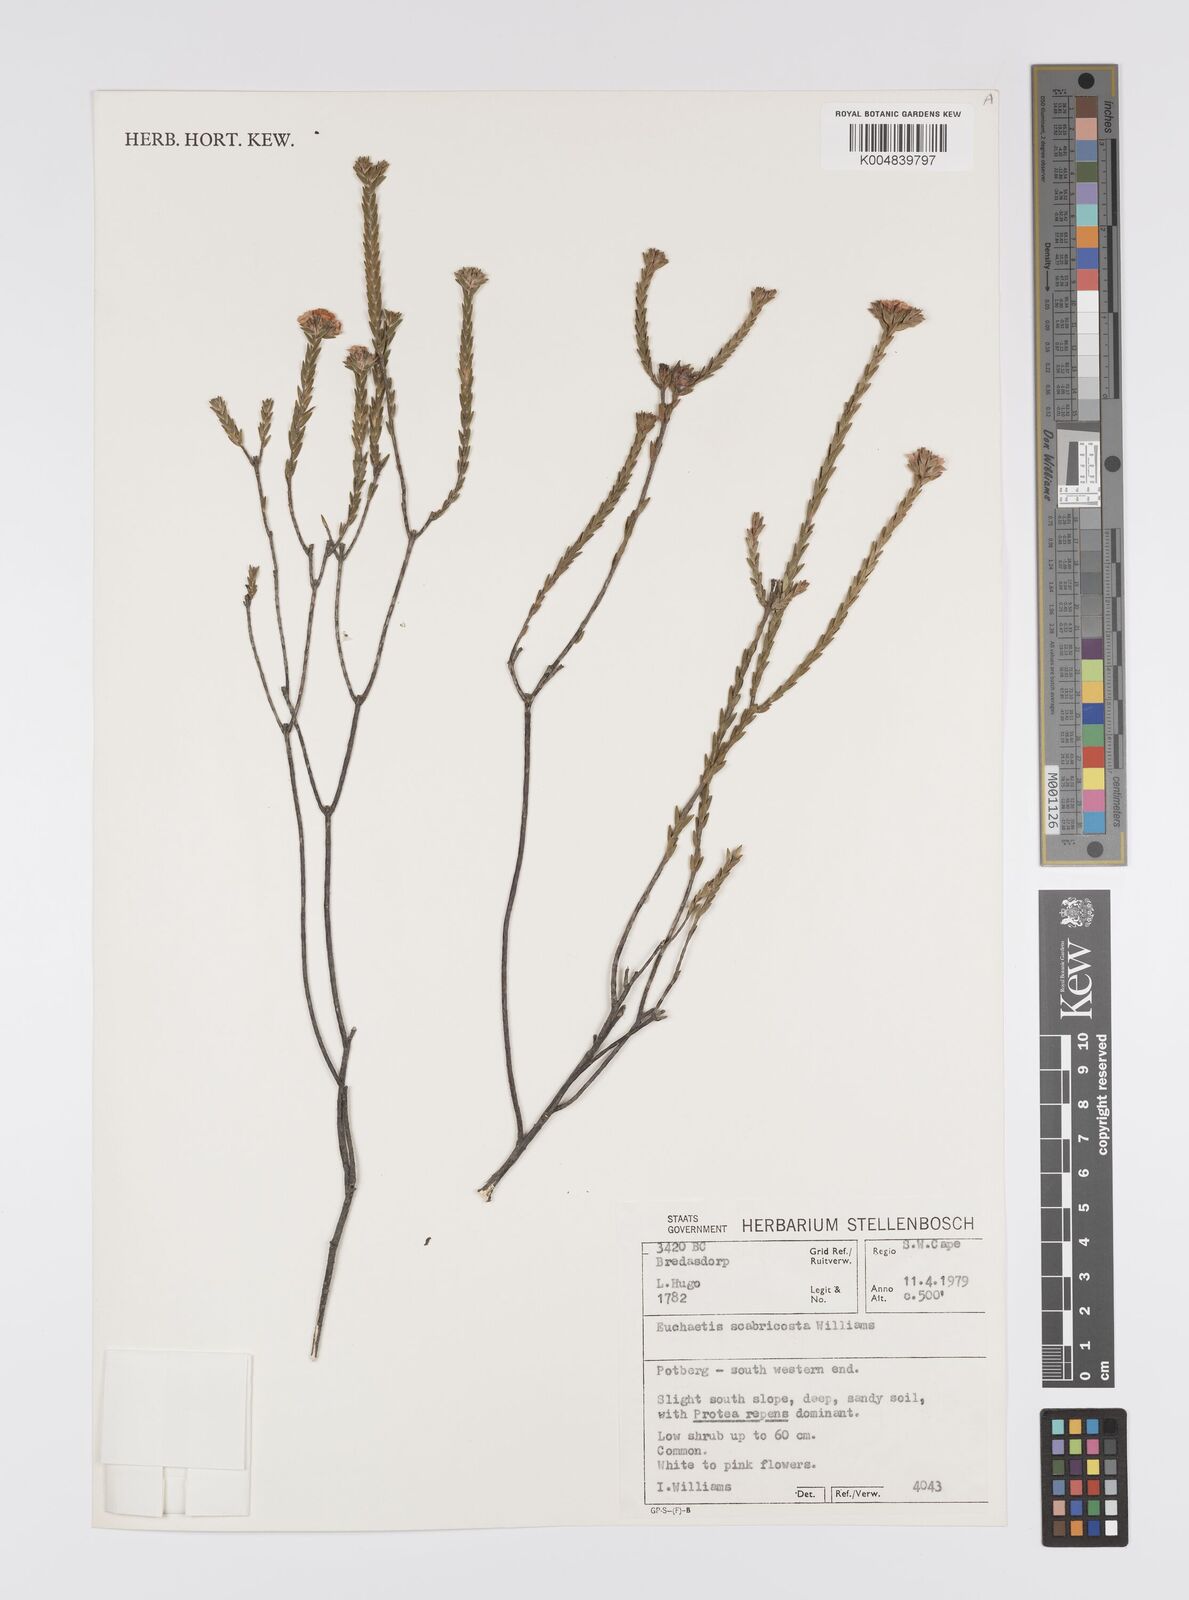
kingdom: Plantae
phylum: Tracheophyta
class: Magnoliopsida
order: Sapindales
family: Rutaceae
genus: Euchaetis
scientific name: Euchaetis scabricosta
